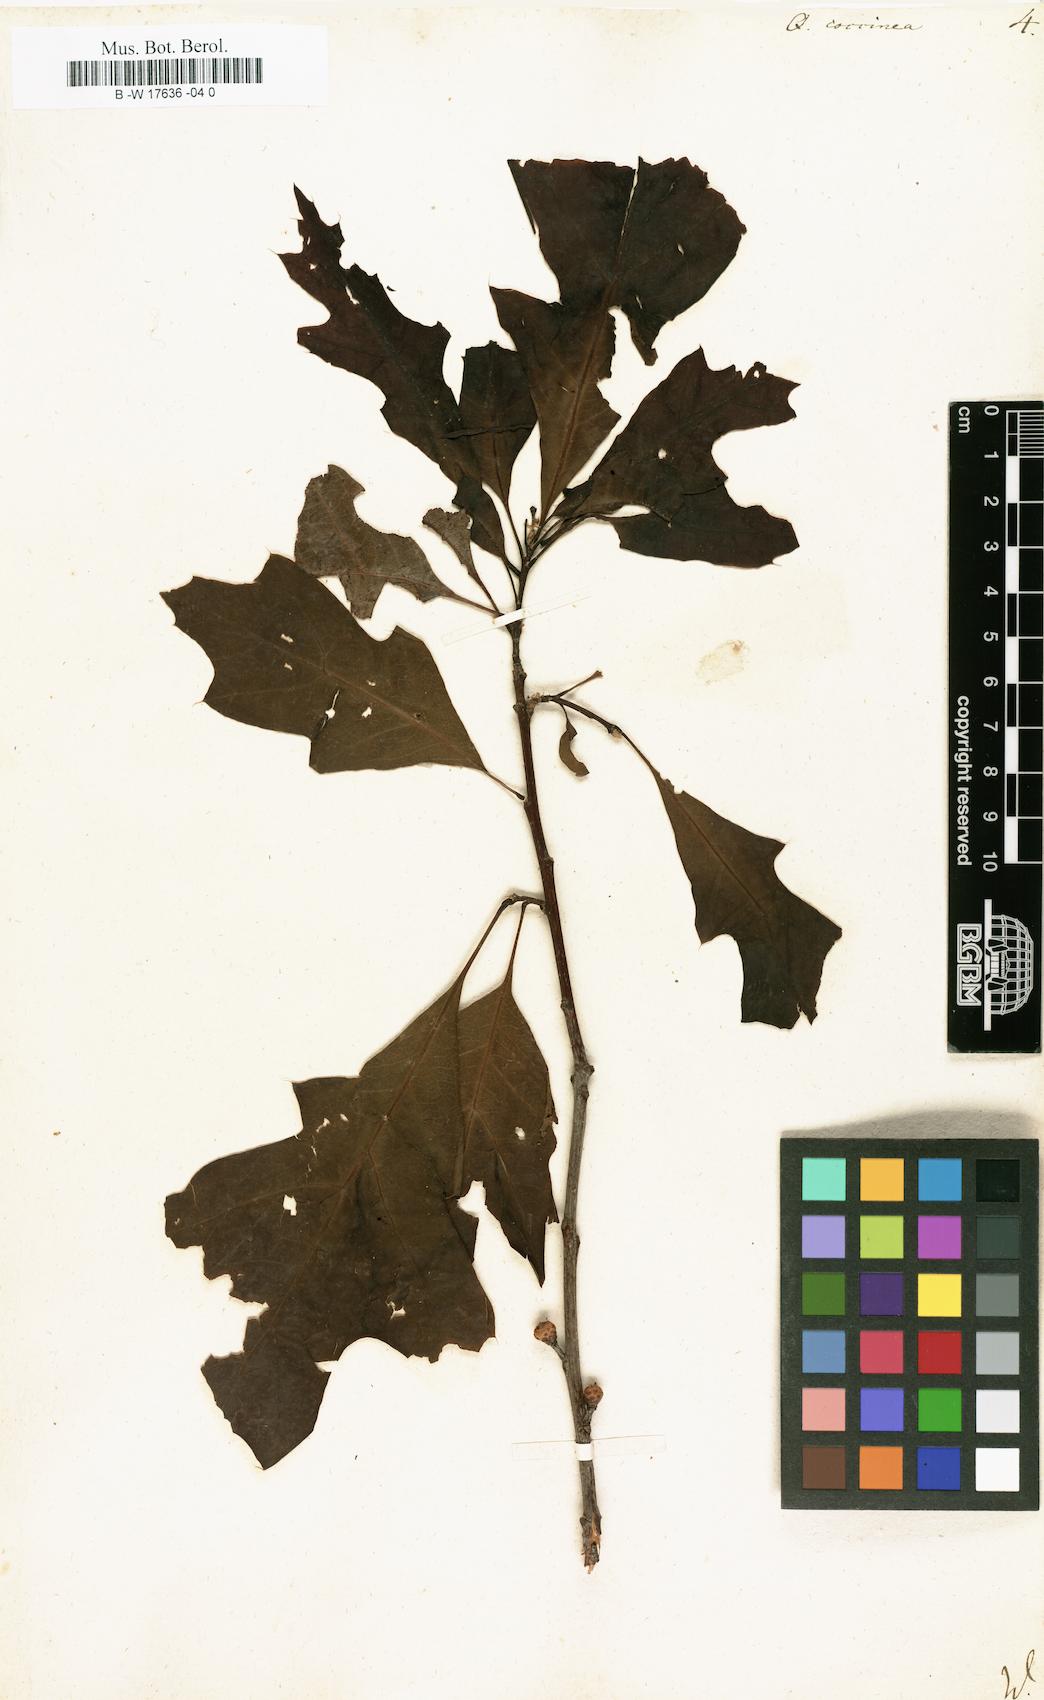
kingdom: Plantae
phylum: Tracheophyta
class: Magnoliopsida
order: Fagales
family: Fagaceae
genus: Quercus
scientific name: Quercus coccinea
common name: Scarlet oak
